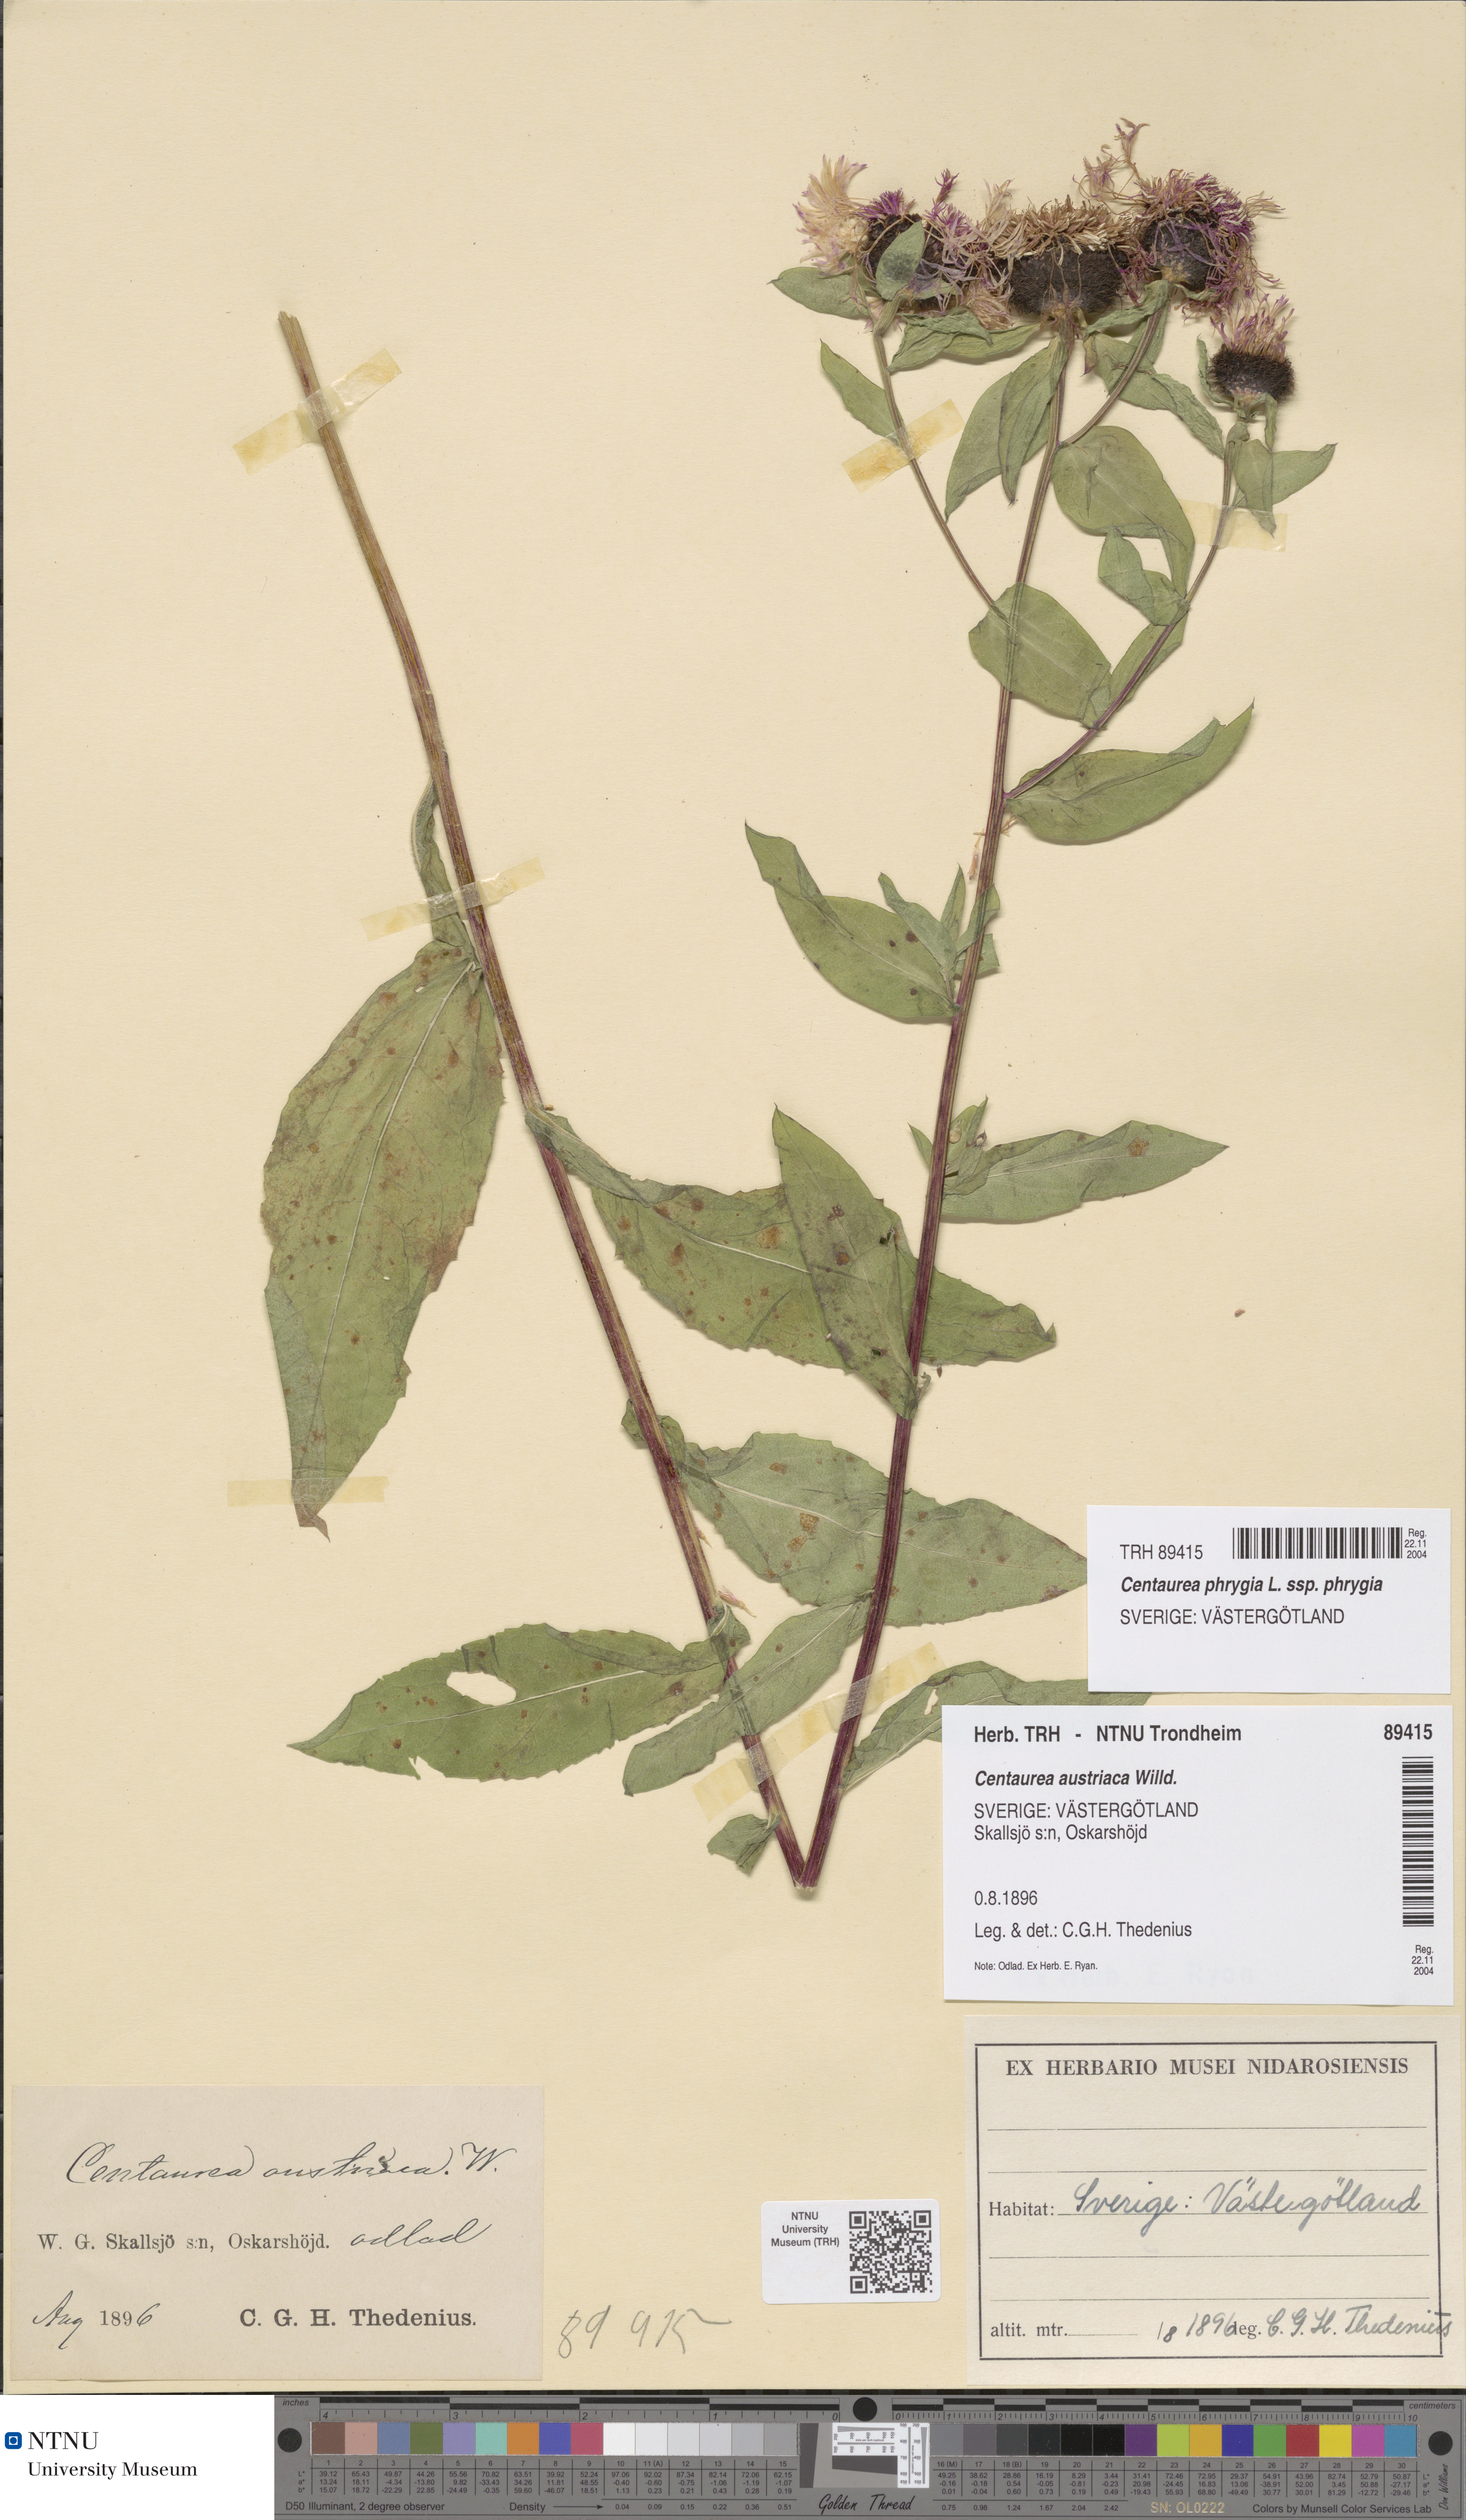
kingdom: Plantae
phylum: Tracheophyta
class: Magnoliopsida
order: Asterales
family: Asteraceae
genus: Centaurea
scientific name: Centaurea phrygia
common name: Wig knapweed
